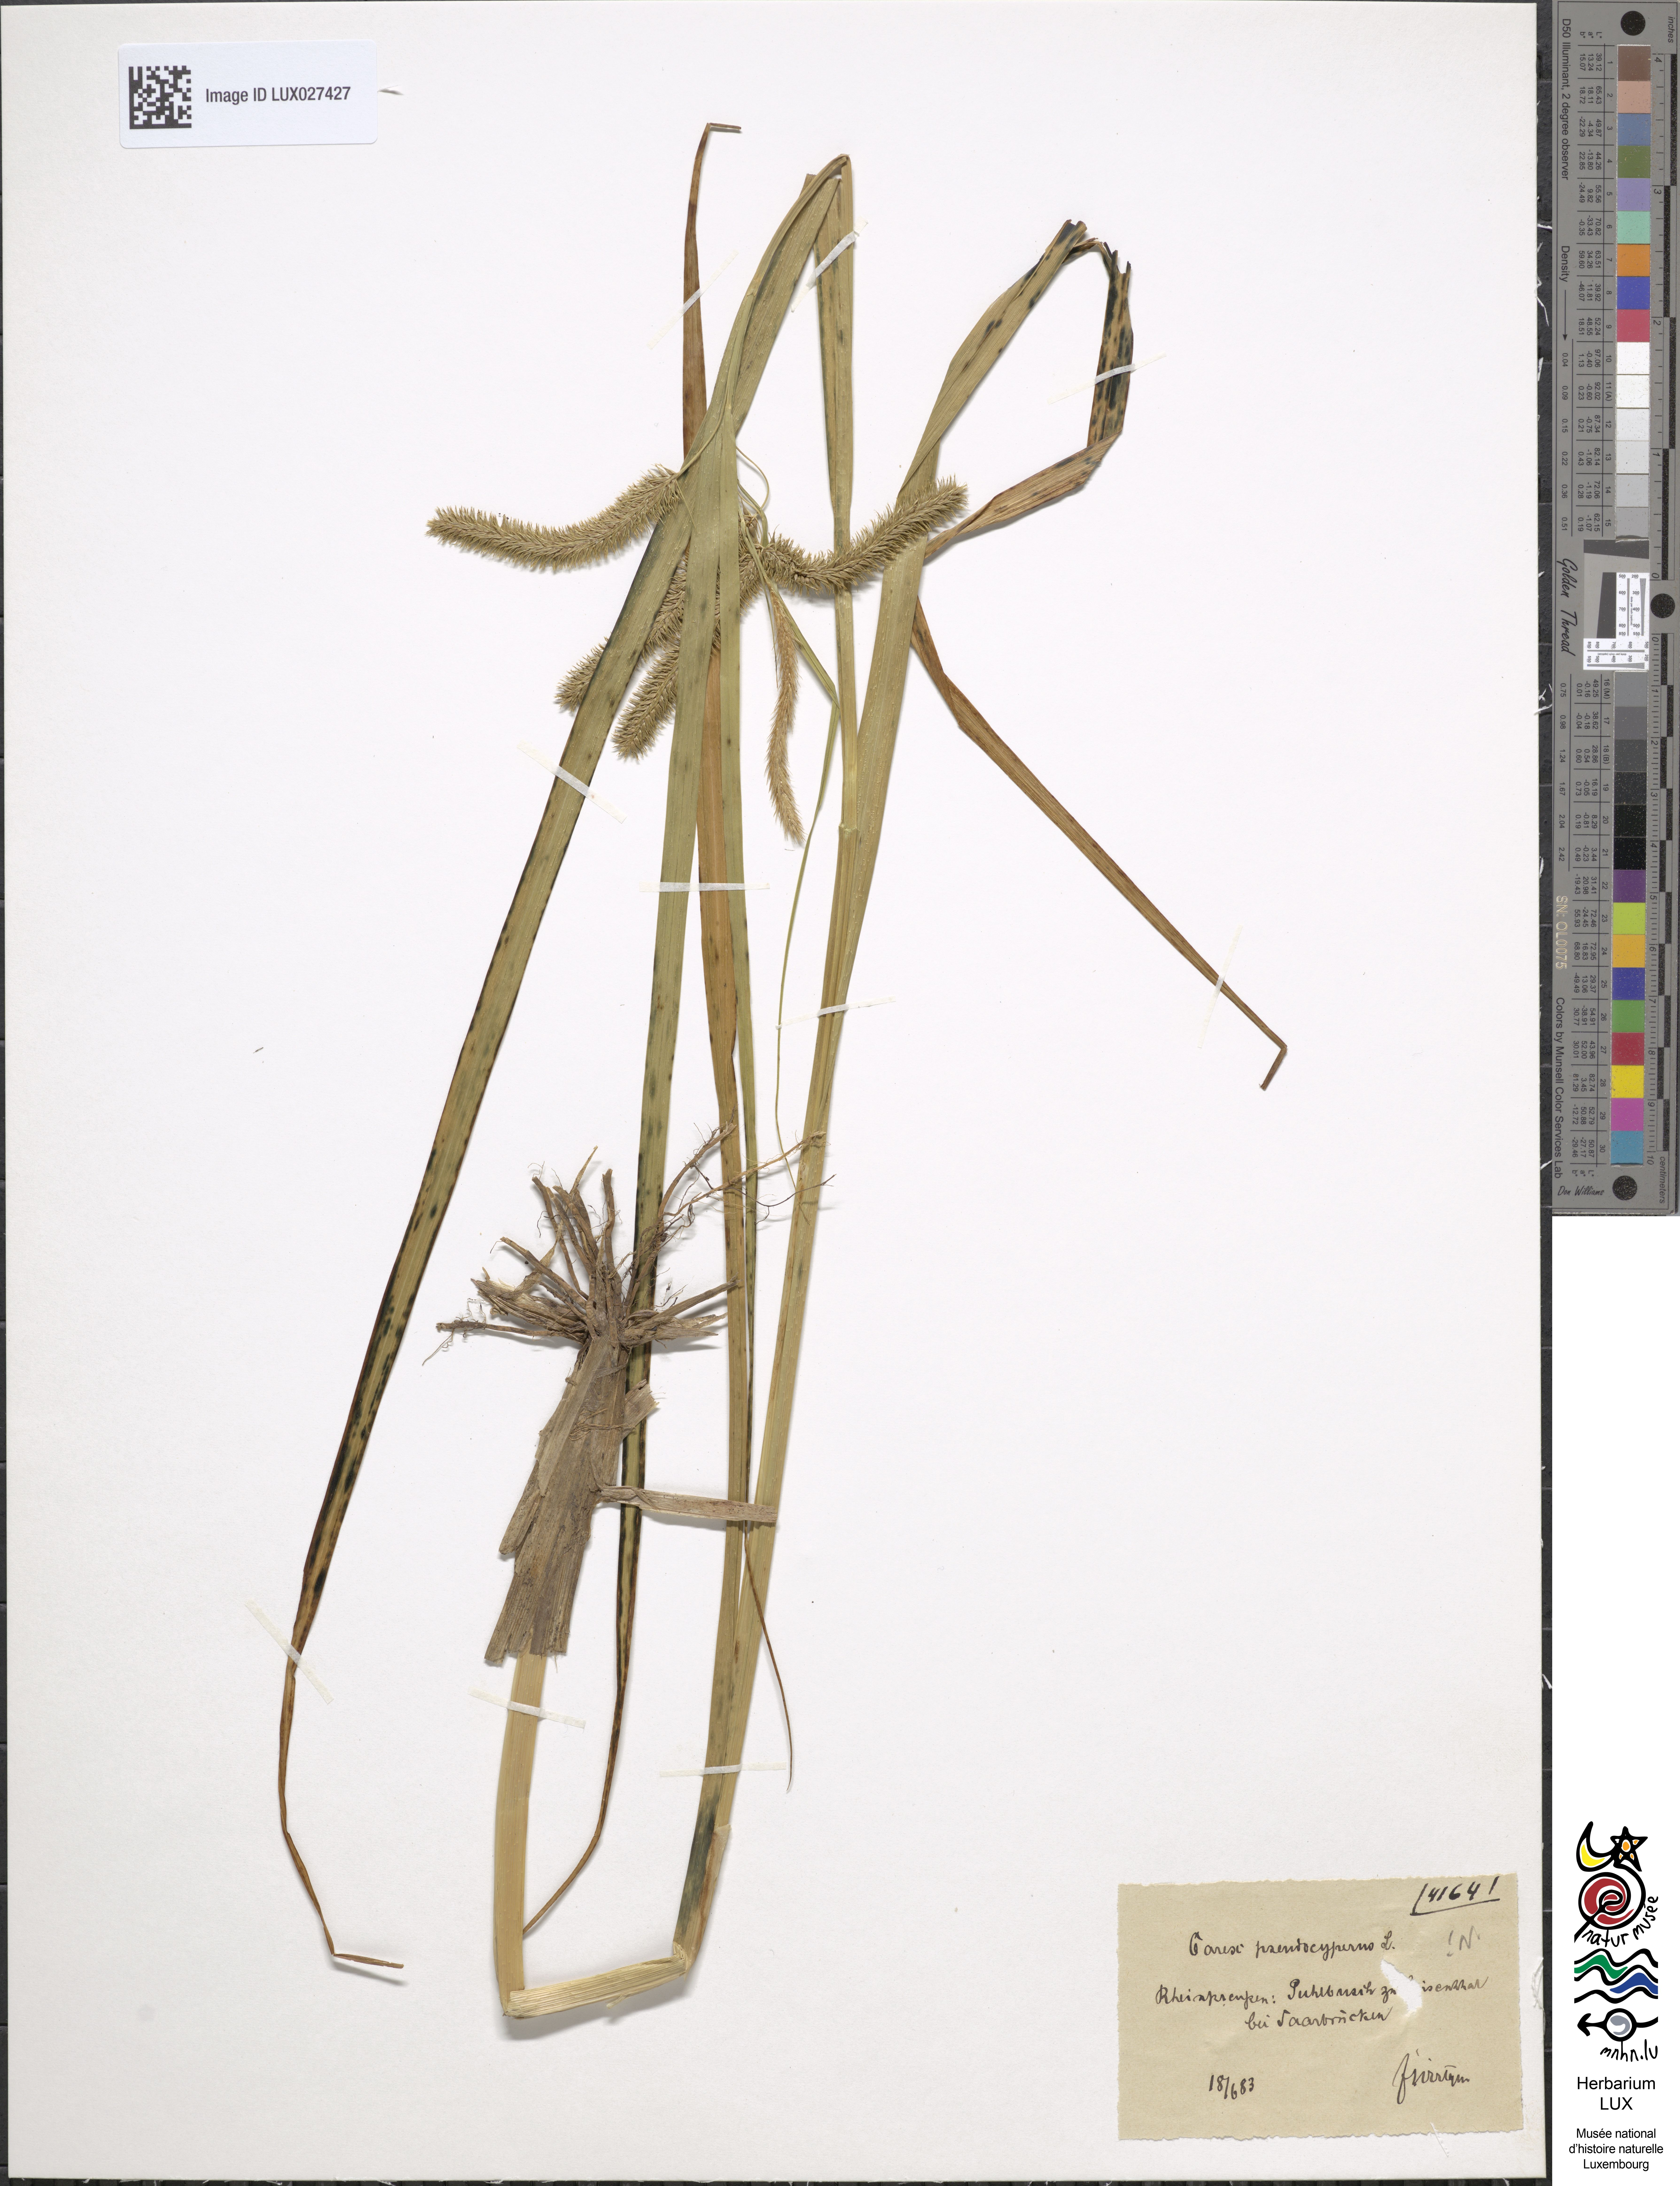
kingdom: Plantae
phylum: Tracheophyta
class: Liliopsida
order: Poales
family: Cyperaceae
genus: Carex
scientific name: Carex pseudocyperus
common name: Cyperus sedge
